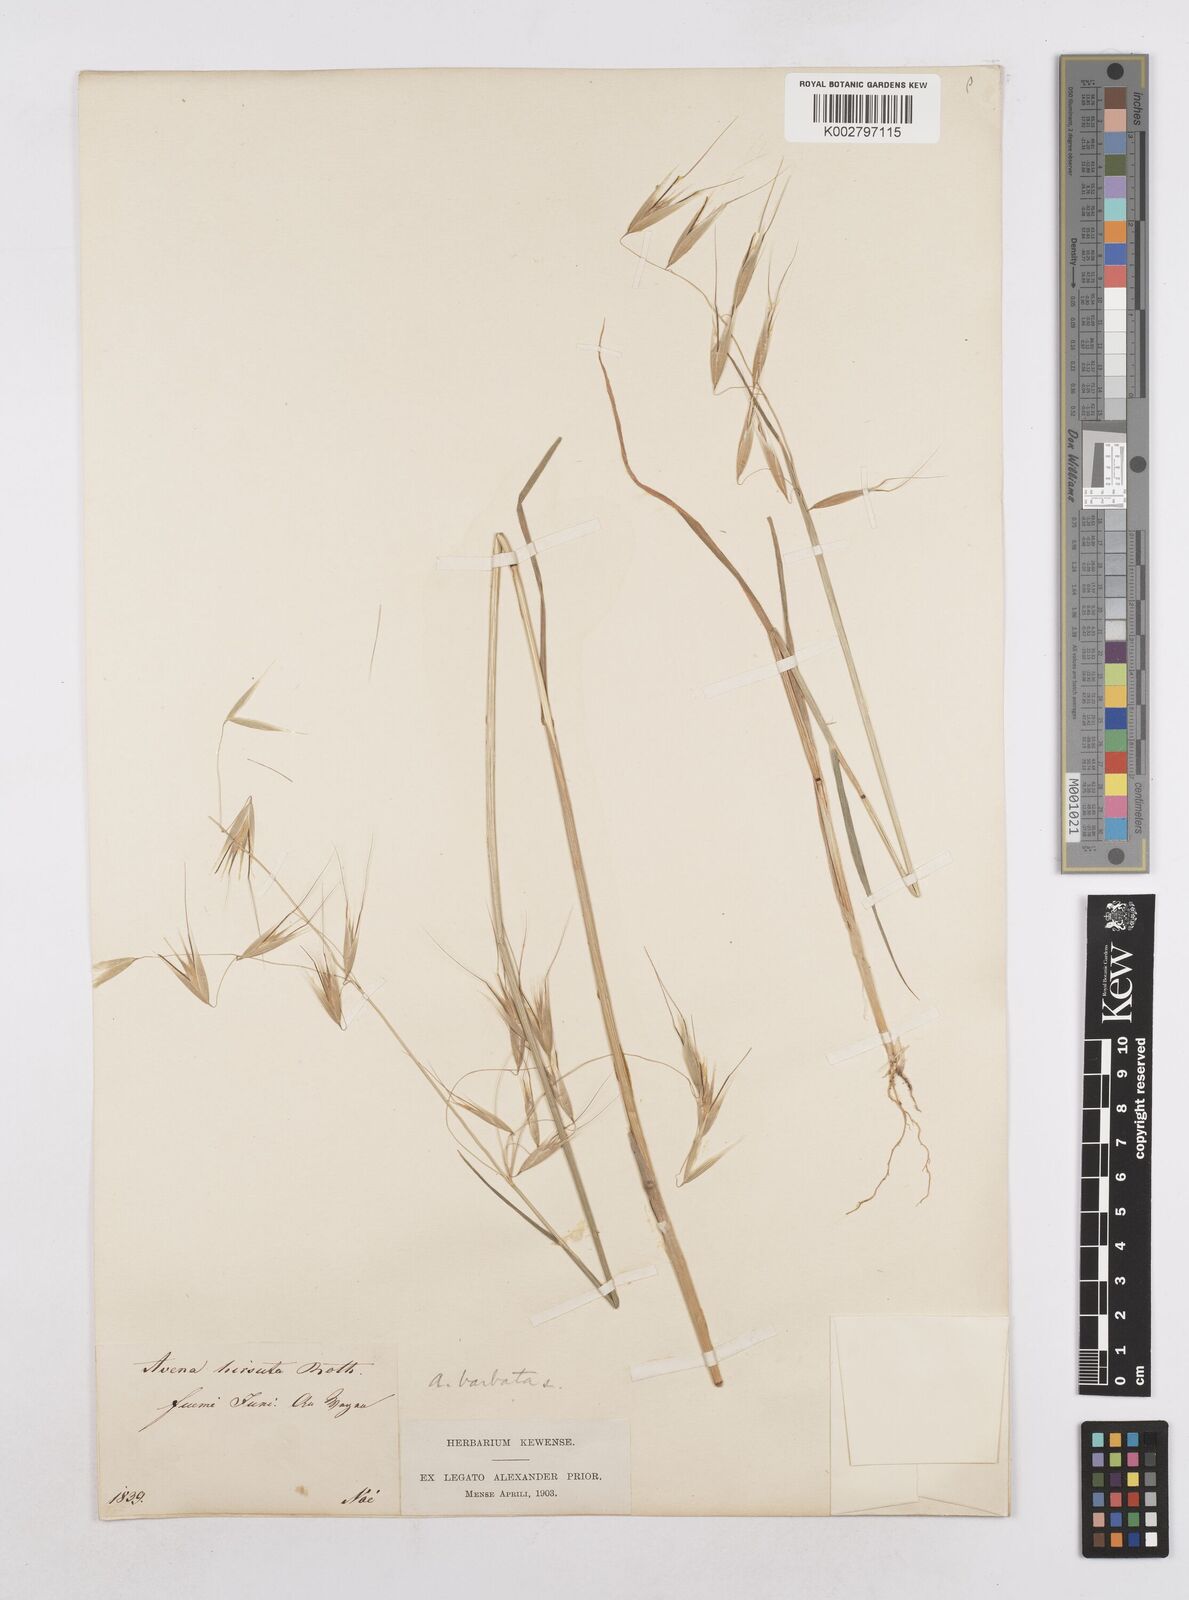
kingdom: Plantae
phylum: Tracheophyta
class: Liliopsida
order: Poales
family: Poaceae
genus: Avena
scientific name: Avena
